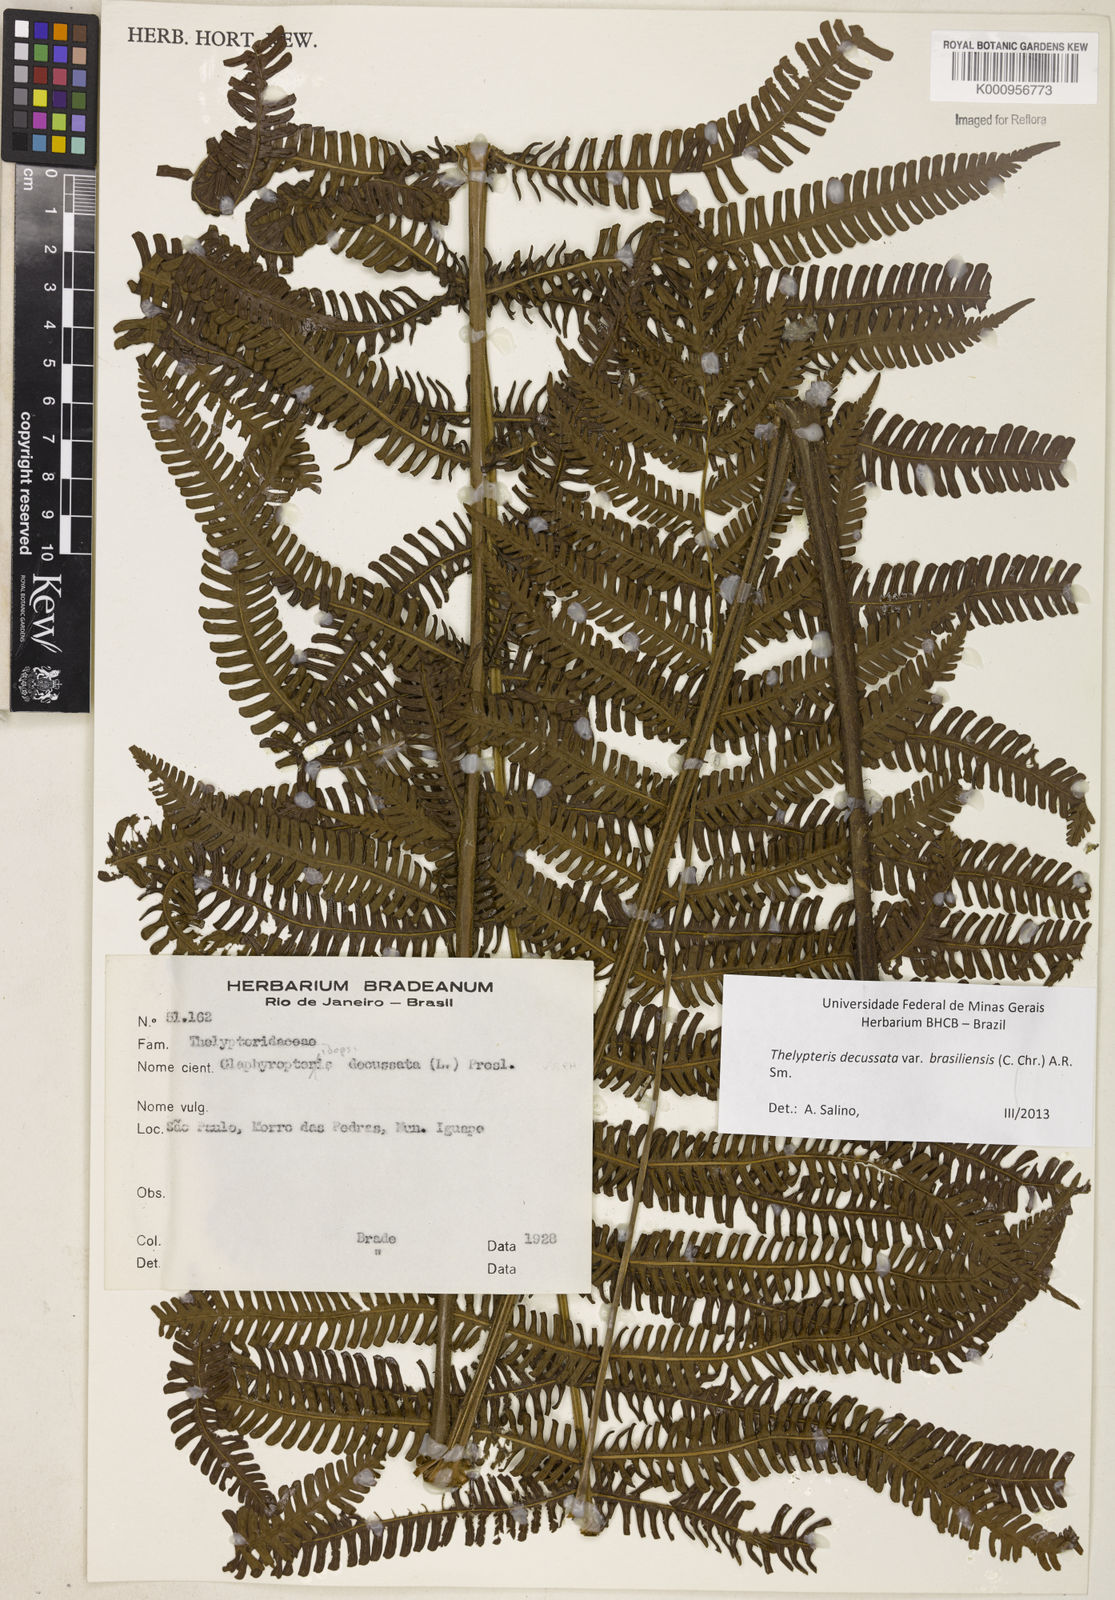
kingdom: Plantae
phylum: Tracheophyta
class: Polypodiopsida
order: Polypodiales
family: Thelypteridaceae
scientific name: Thelypteridaceae
